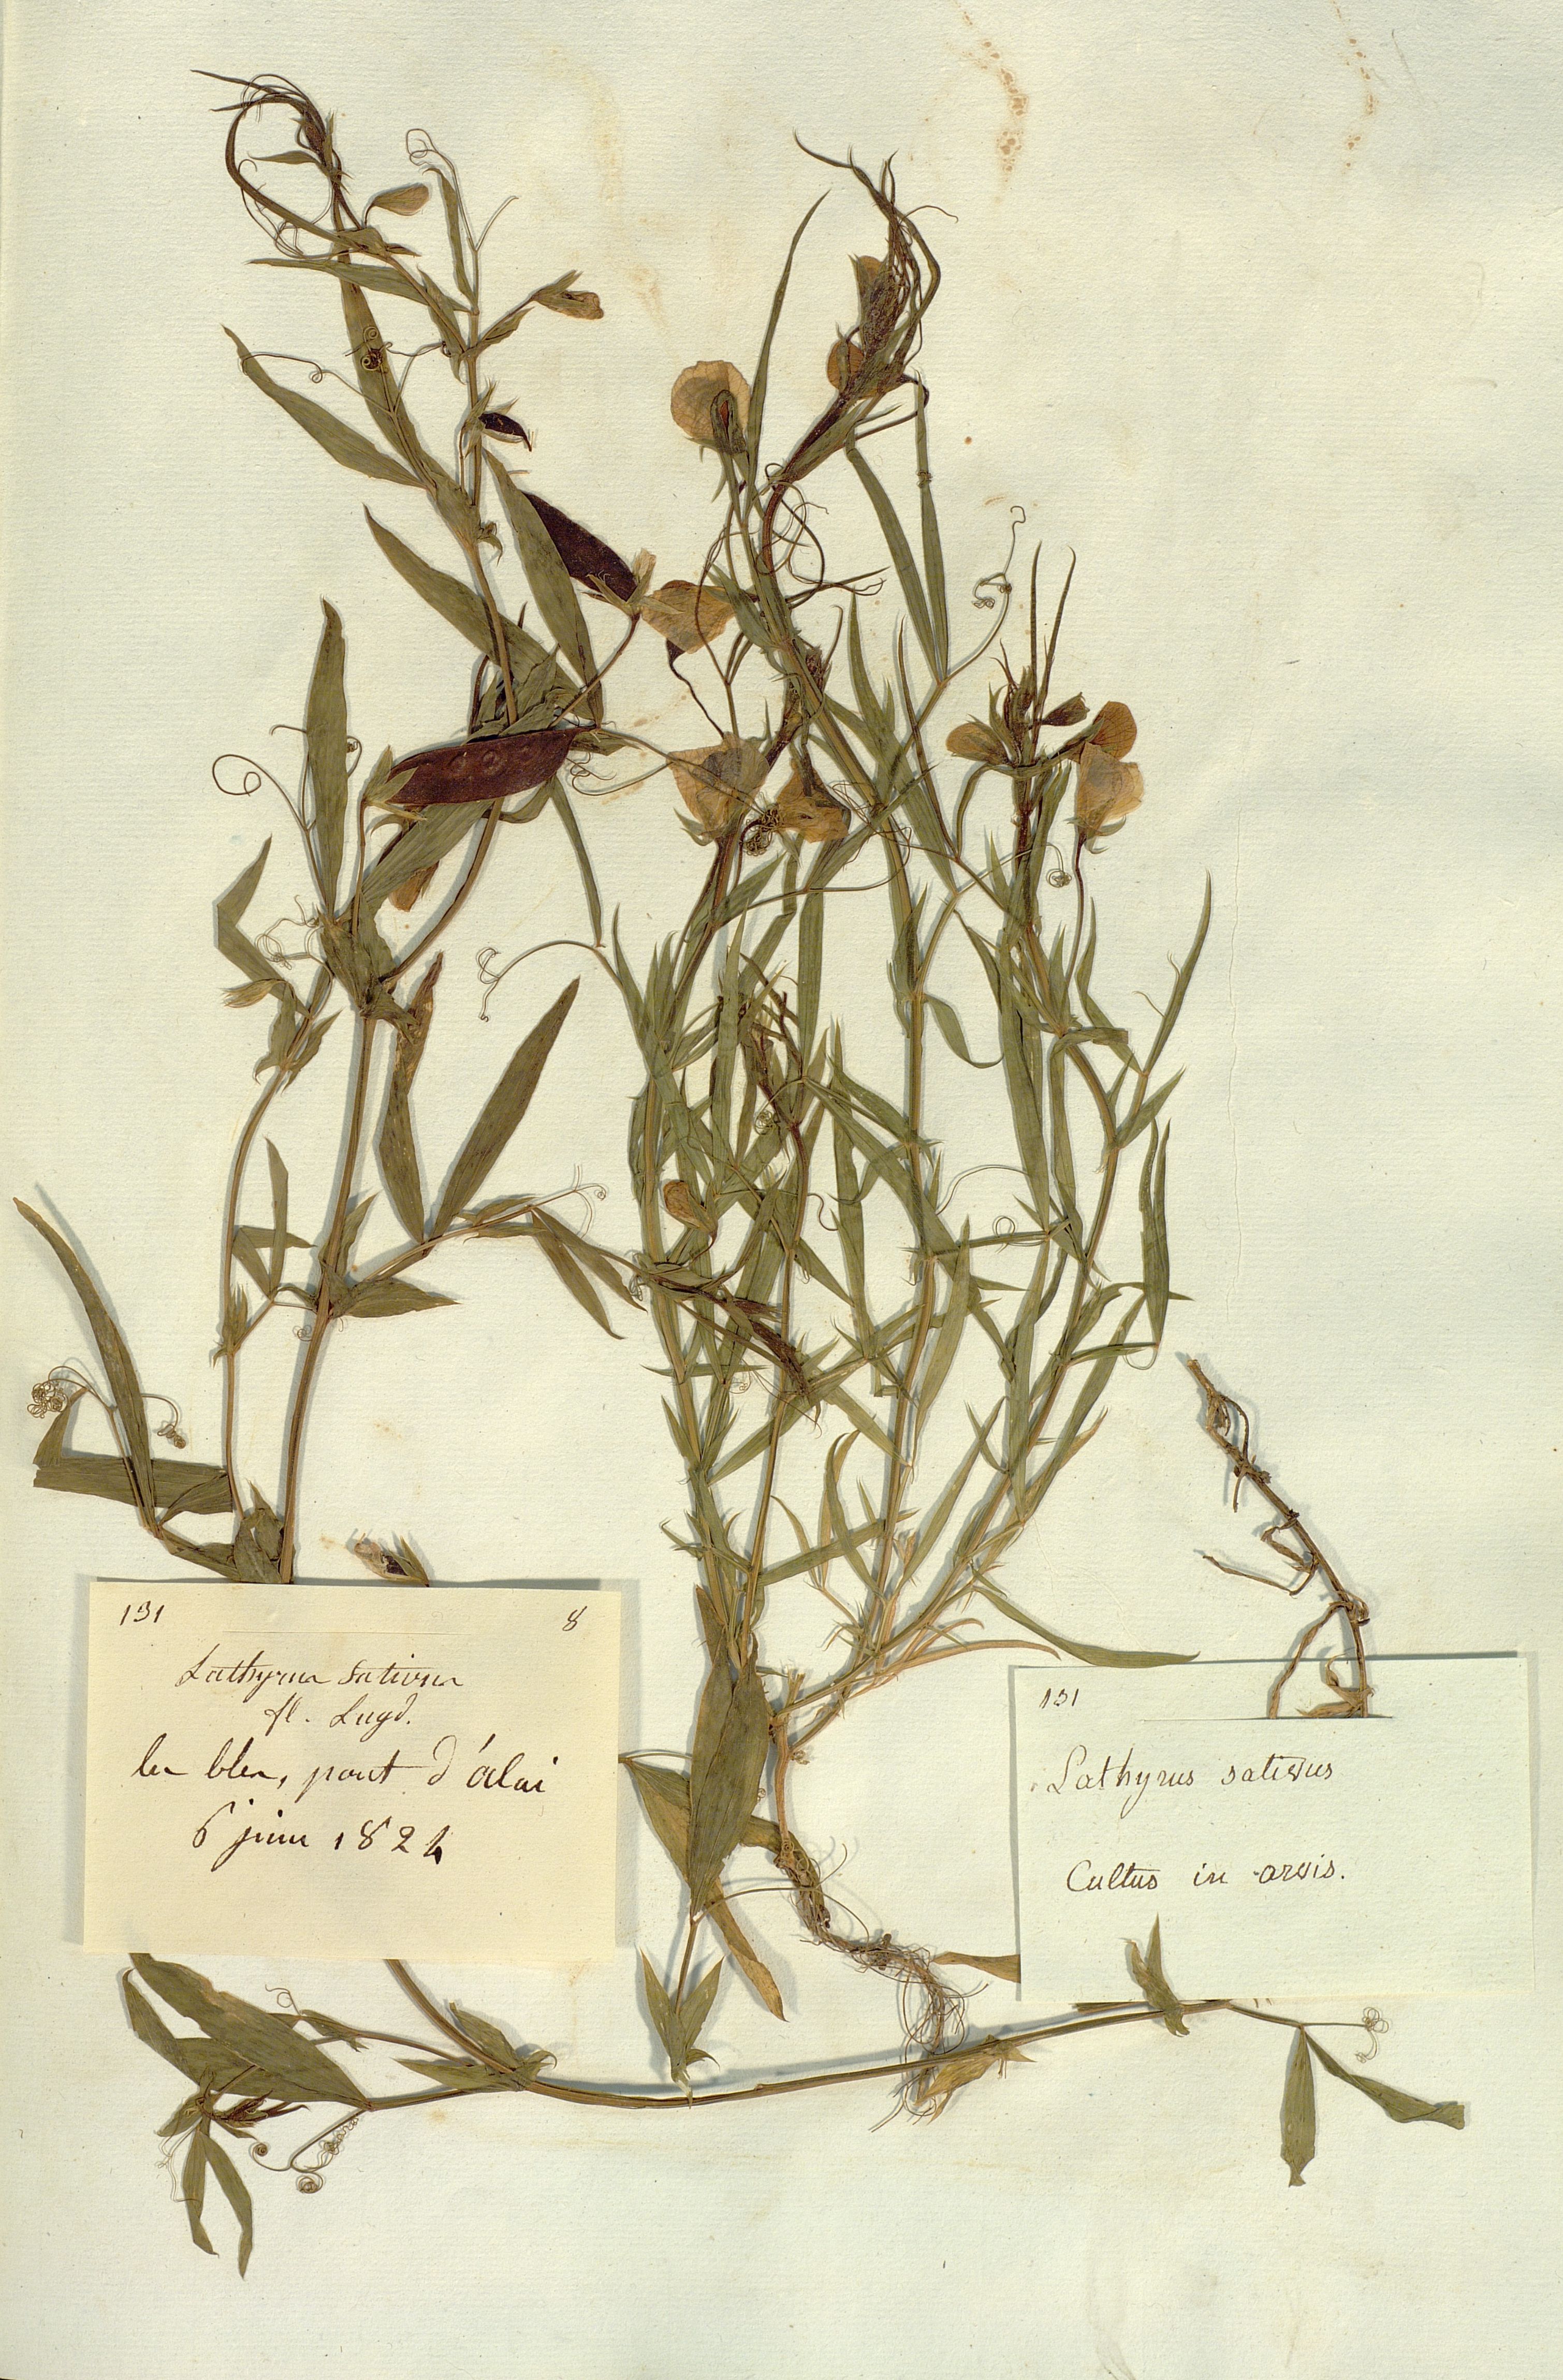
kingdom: Plantae
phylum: Tracheophyta
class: Magnoliopsida
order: Fabales
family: Fabaceae
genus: Lathyrus
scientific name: Lathyrus sativus
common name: Indian pea
